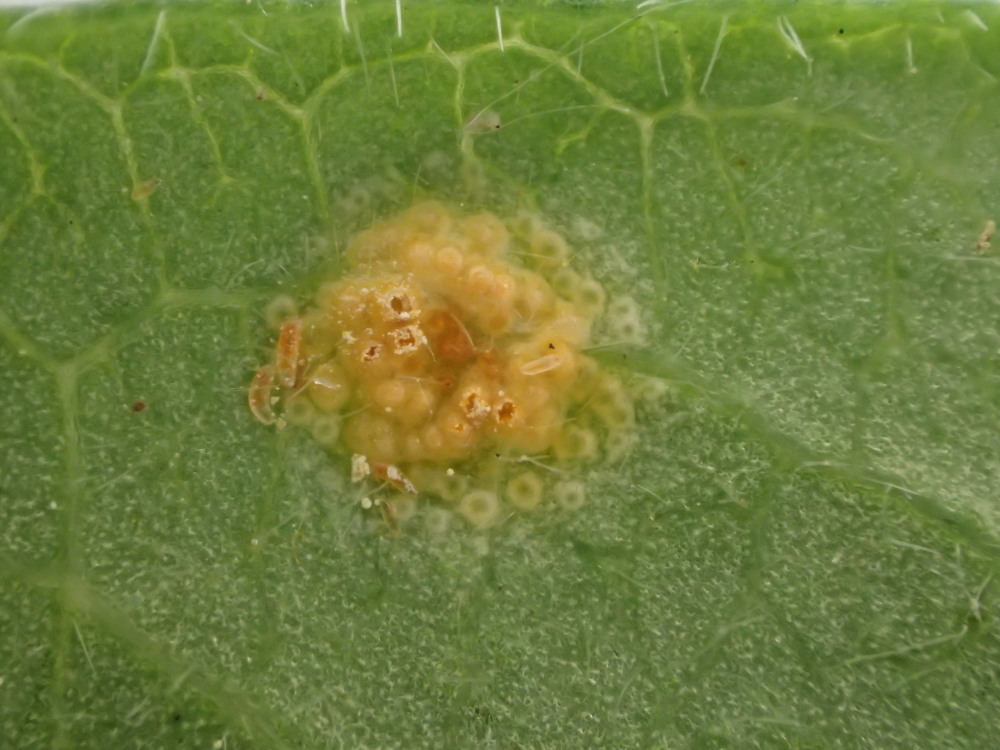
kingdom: Fungi
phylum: Basidiomycota
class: Pucciniomycetes
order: Pucciniales
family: Pucciniaceae
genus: Puccinia
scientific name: Puccinia festucae
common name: gedeblad-tvecellerust
